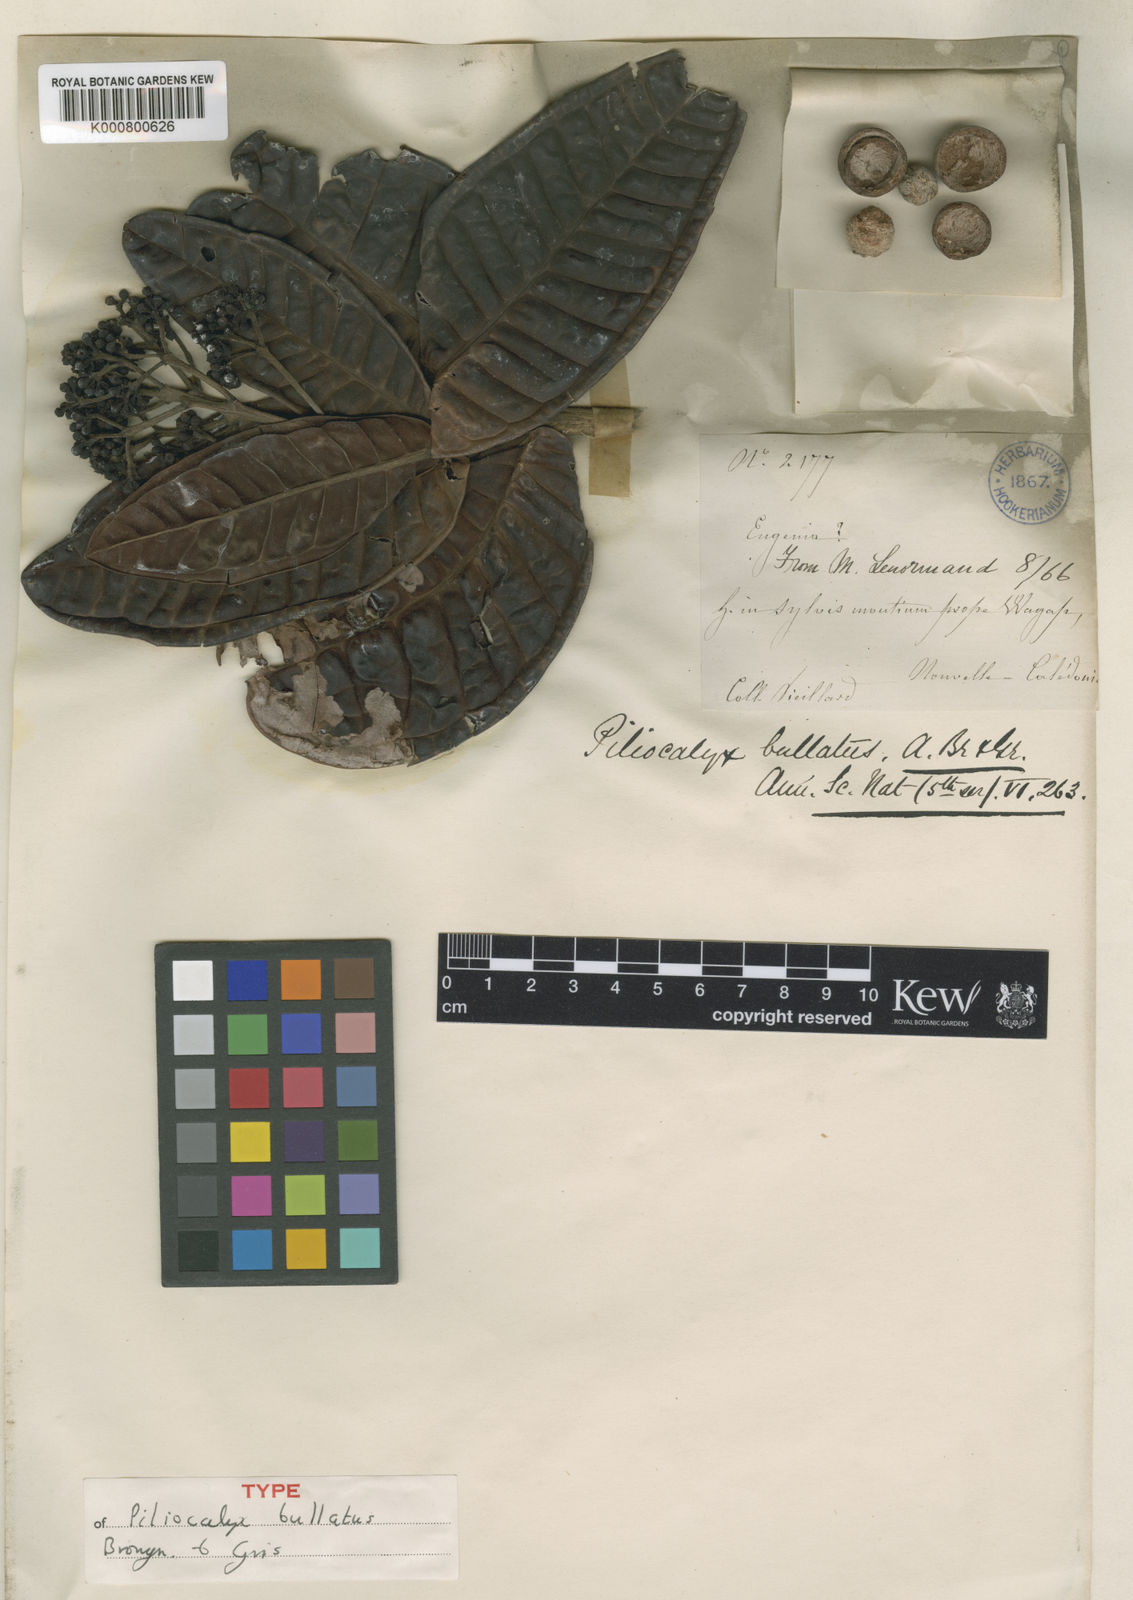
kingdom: Plantae
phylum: Tracheophyta
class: Magnoliopsida
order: Myrtales
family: Myrtaceae
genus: Syzygium
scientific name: Syzygium bullatum
